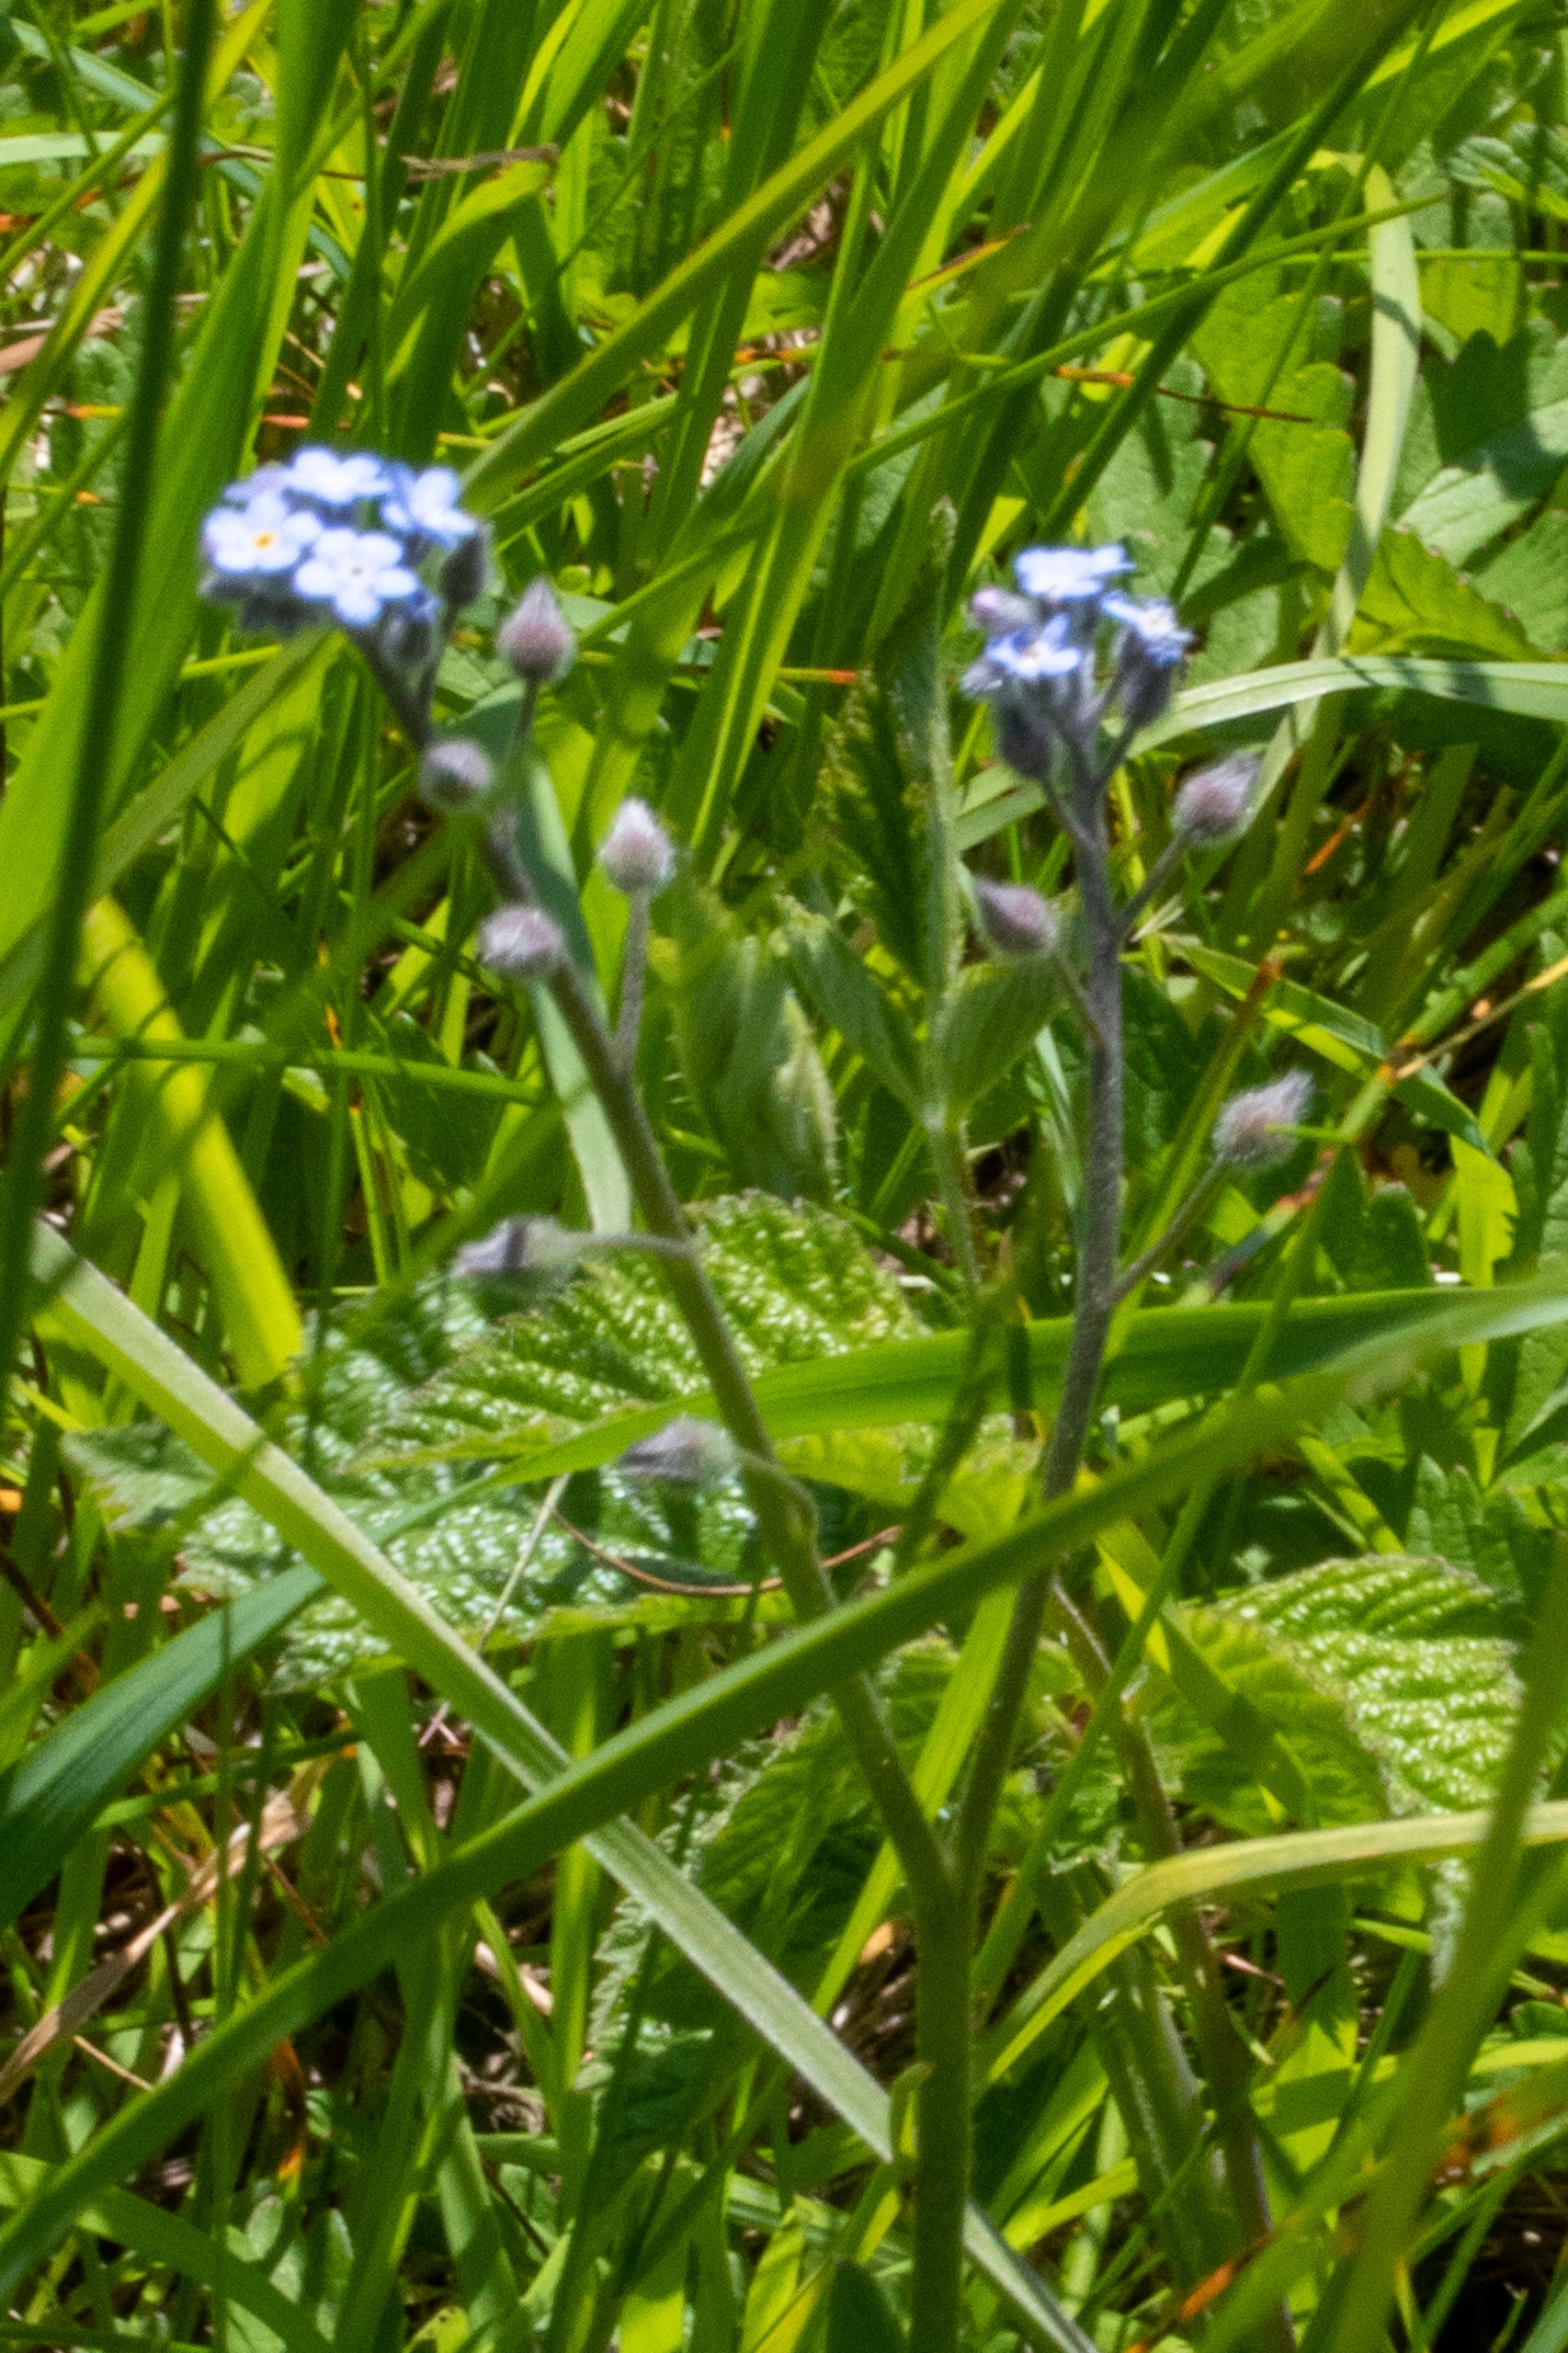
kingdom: Plantae
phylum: Tracheophyta
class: Magnoliopsida
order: Boraginales
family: Boraginaceae
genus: Myosotis
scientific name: Myosotis arvensis
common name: Mark-forglemmigej
